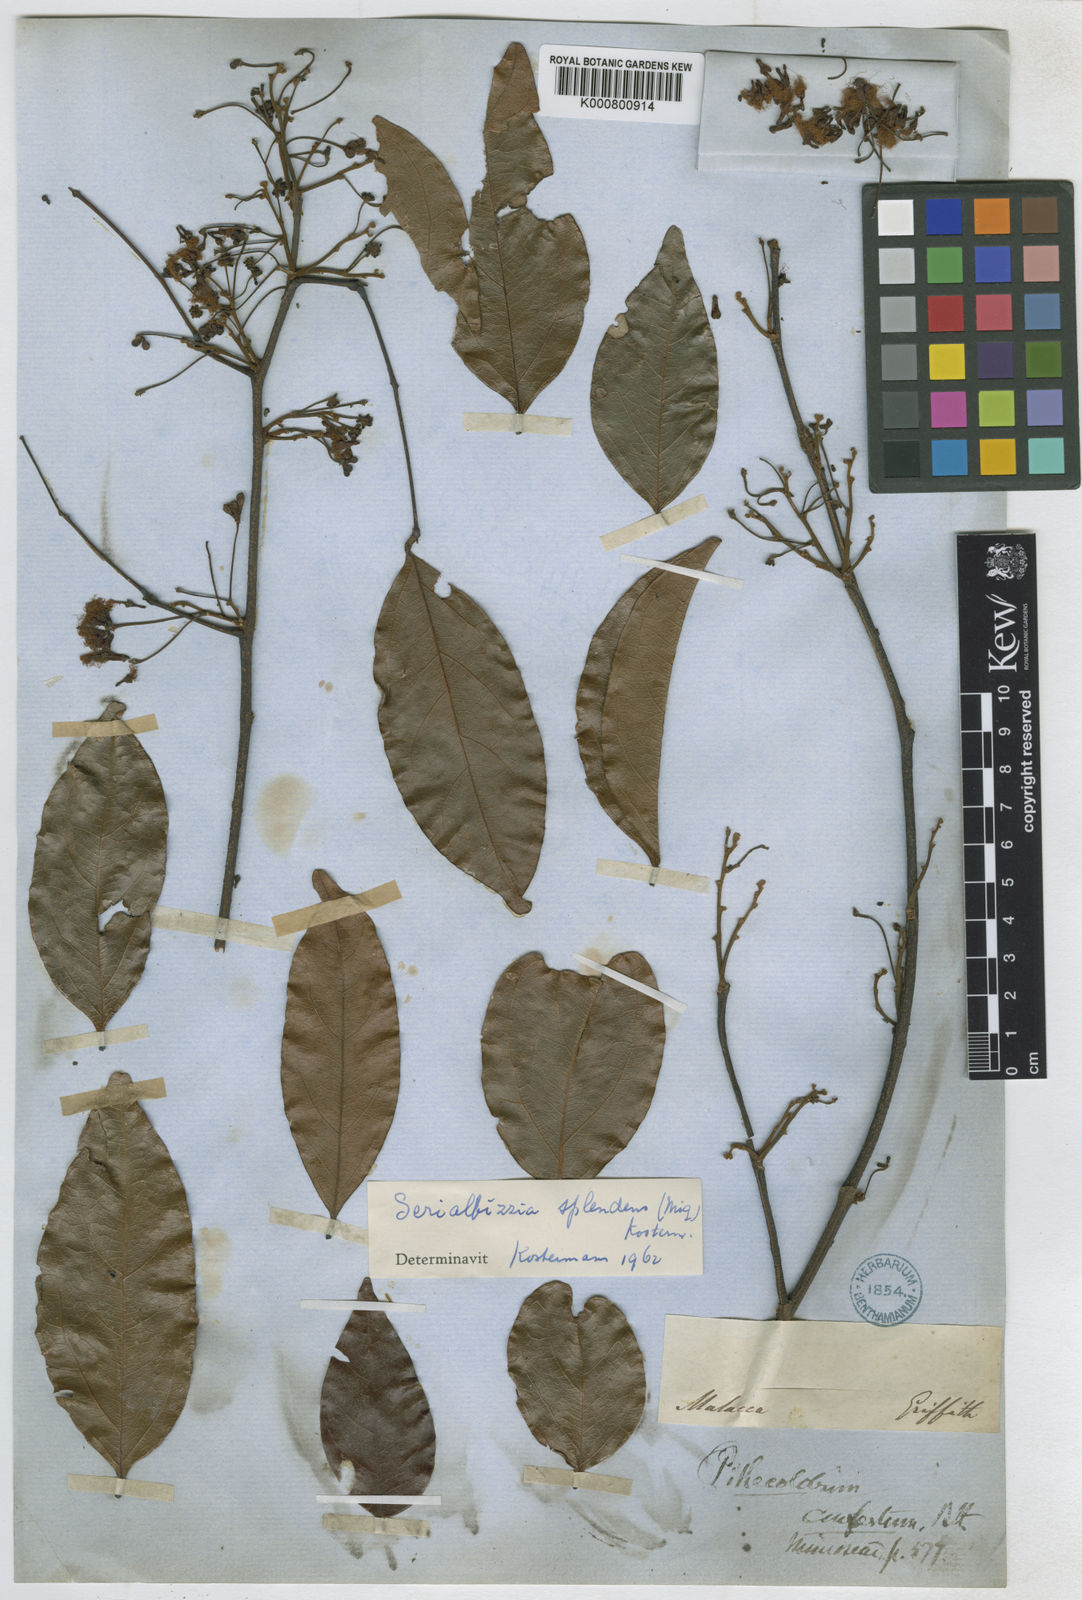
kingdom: Plantae
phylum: Tracheophyta
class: Magnoliopsida
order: Fabales
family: Fabaceae
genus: Albizia
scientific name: Albizia splendens
